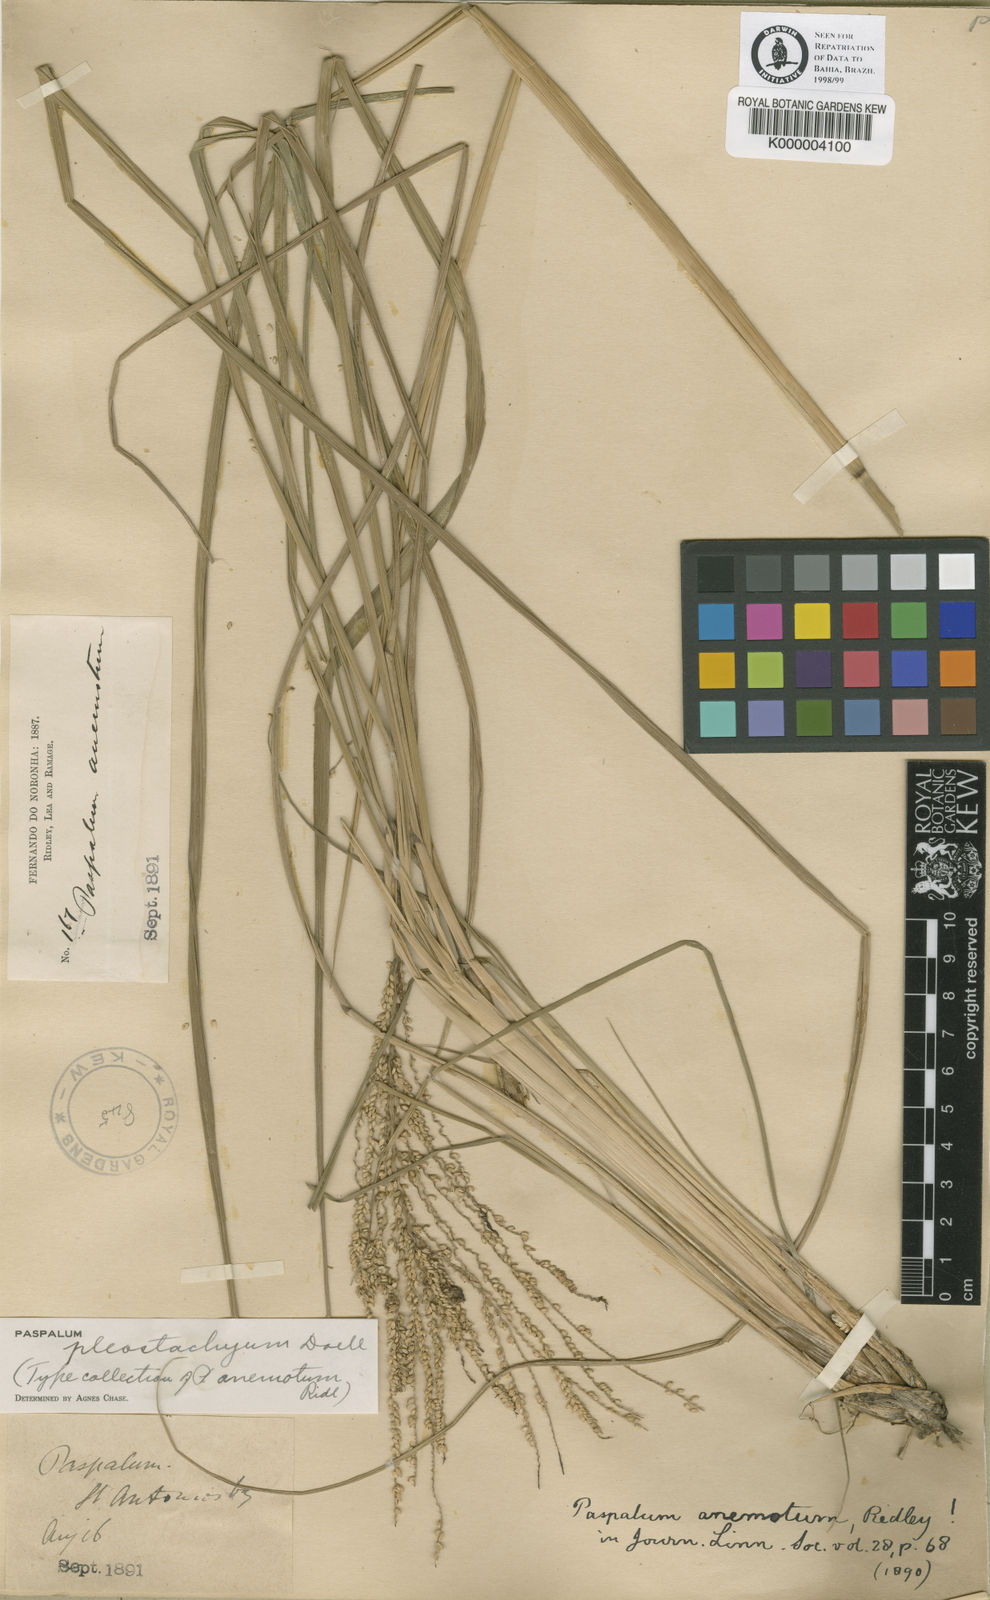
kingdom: Plantae
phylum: Tracheophyta
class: Liliopsida
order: Poales
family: Poaceae
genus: Paspalum
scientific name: Paspalum
